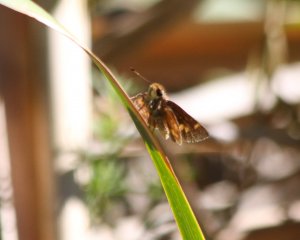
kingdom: Animalia
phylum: Arthropoda
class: Insecta
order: Lepidoptera
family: Hesperiidae
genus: Lon
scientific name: Lon melane
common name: Umber Skipper
